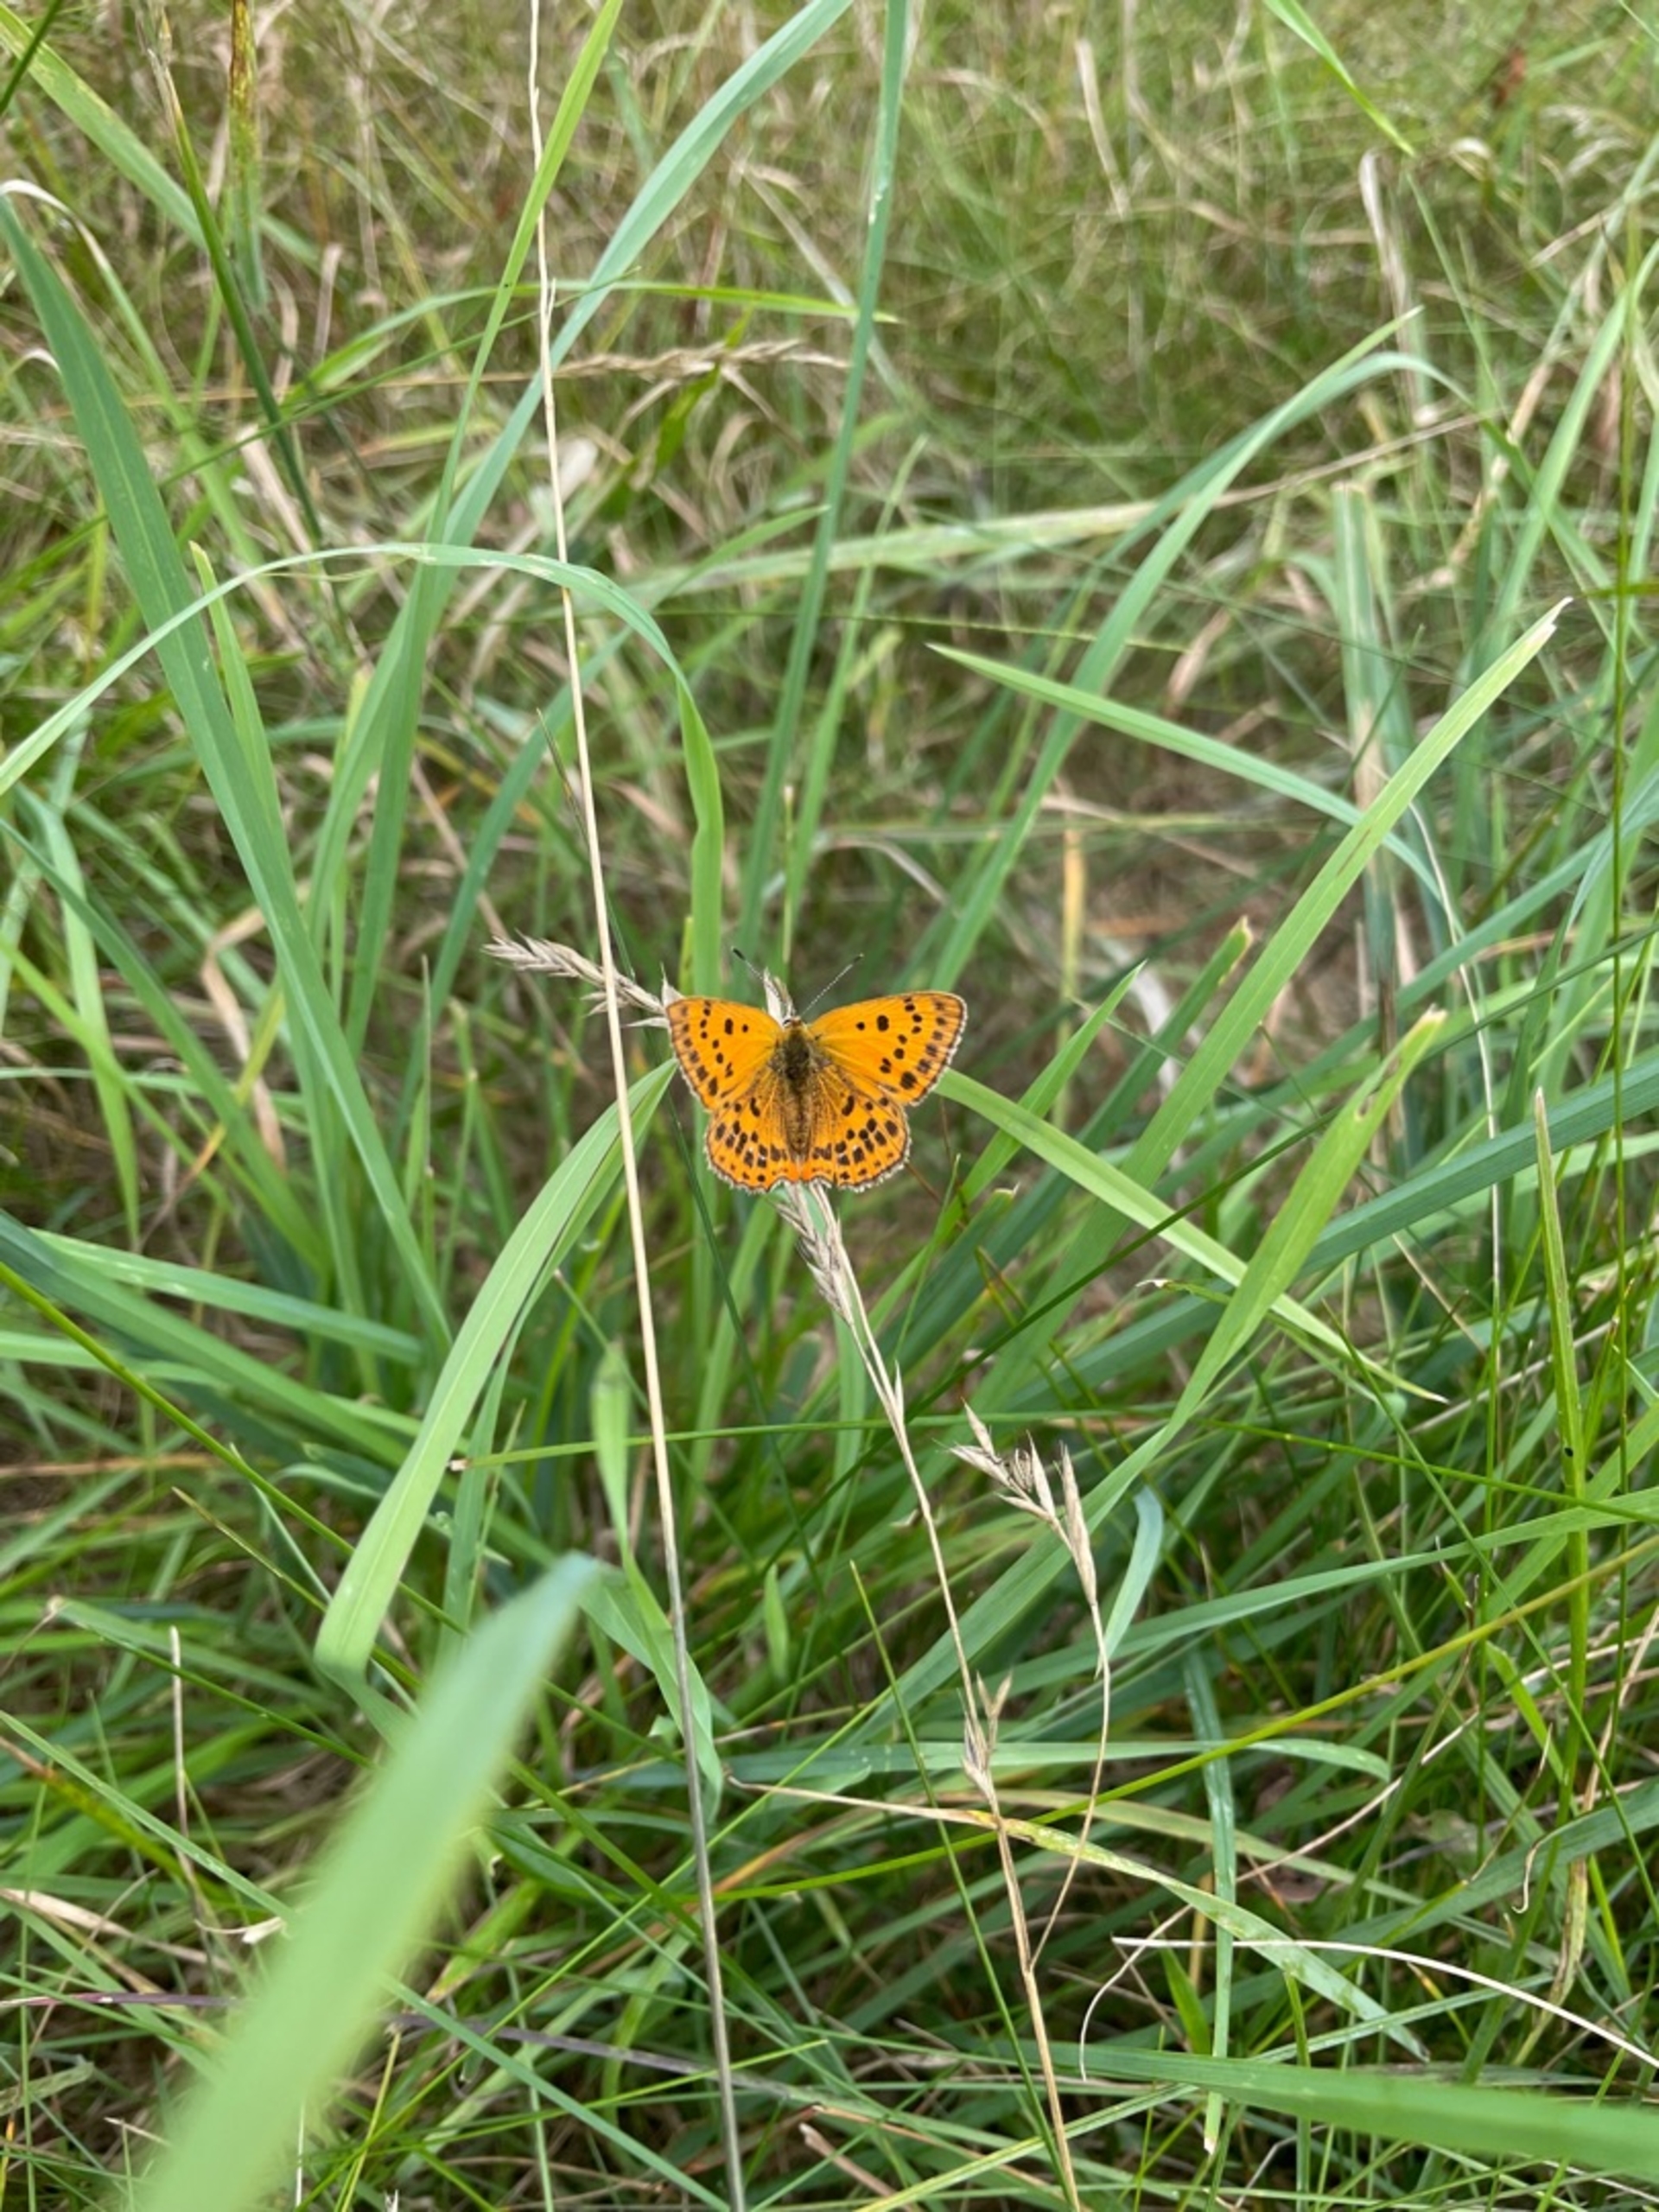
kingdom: Animalia
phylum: Arthropoda
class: Insecta
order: Lepidoptera
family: Lycaenidae
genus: Lycaena
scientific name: Lycaena virgaureae
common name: Dukatsommerfugl
